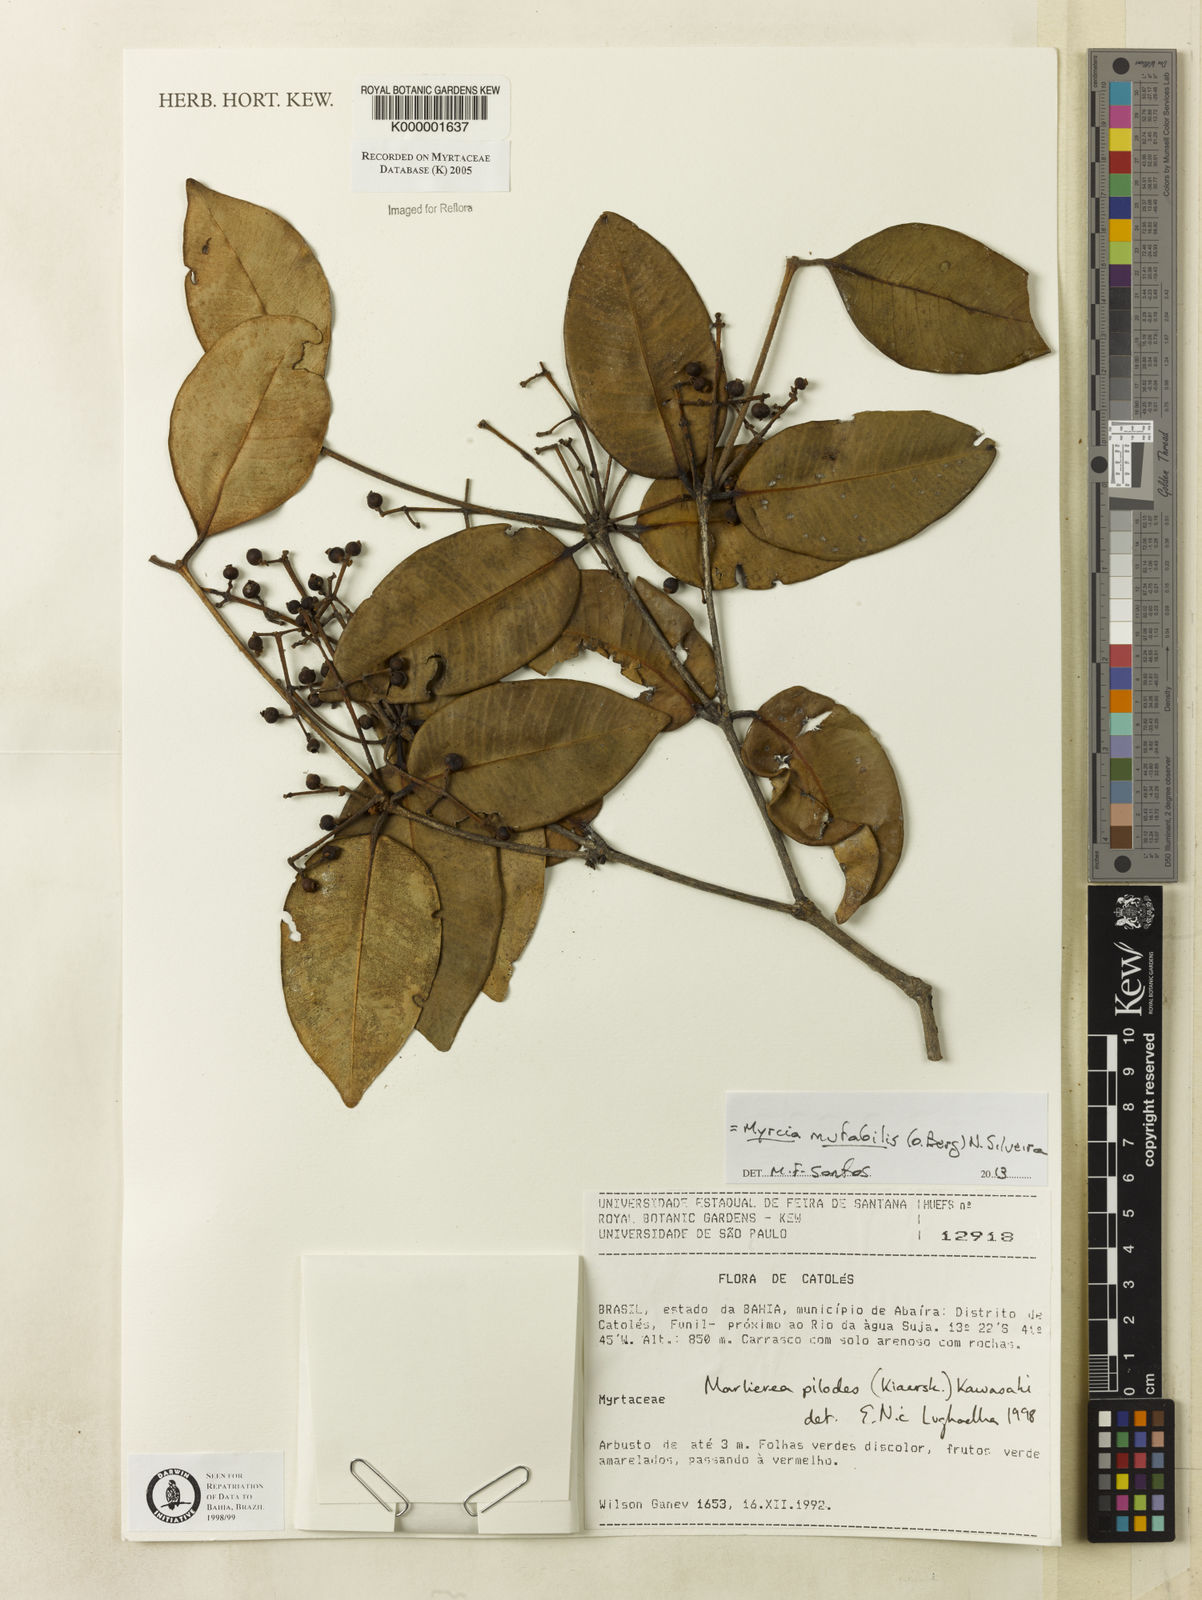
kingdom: Plantae
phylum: Tracheophyta
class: Magnoliopsida
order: Myrtales
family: Myrtaceae
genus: Myrcia
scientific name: Myrcia mutabilis
